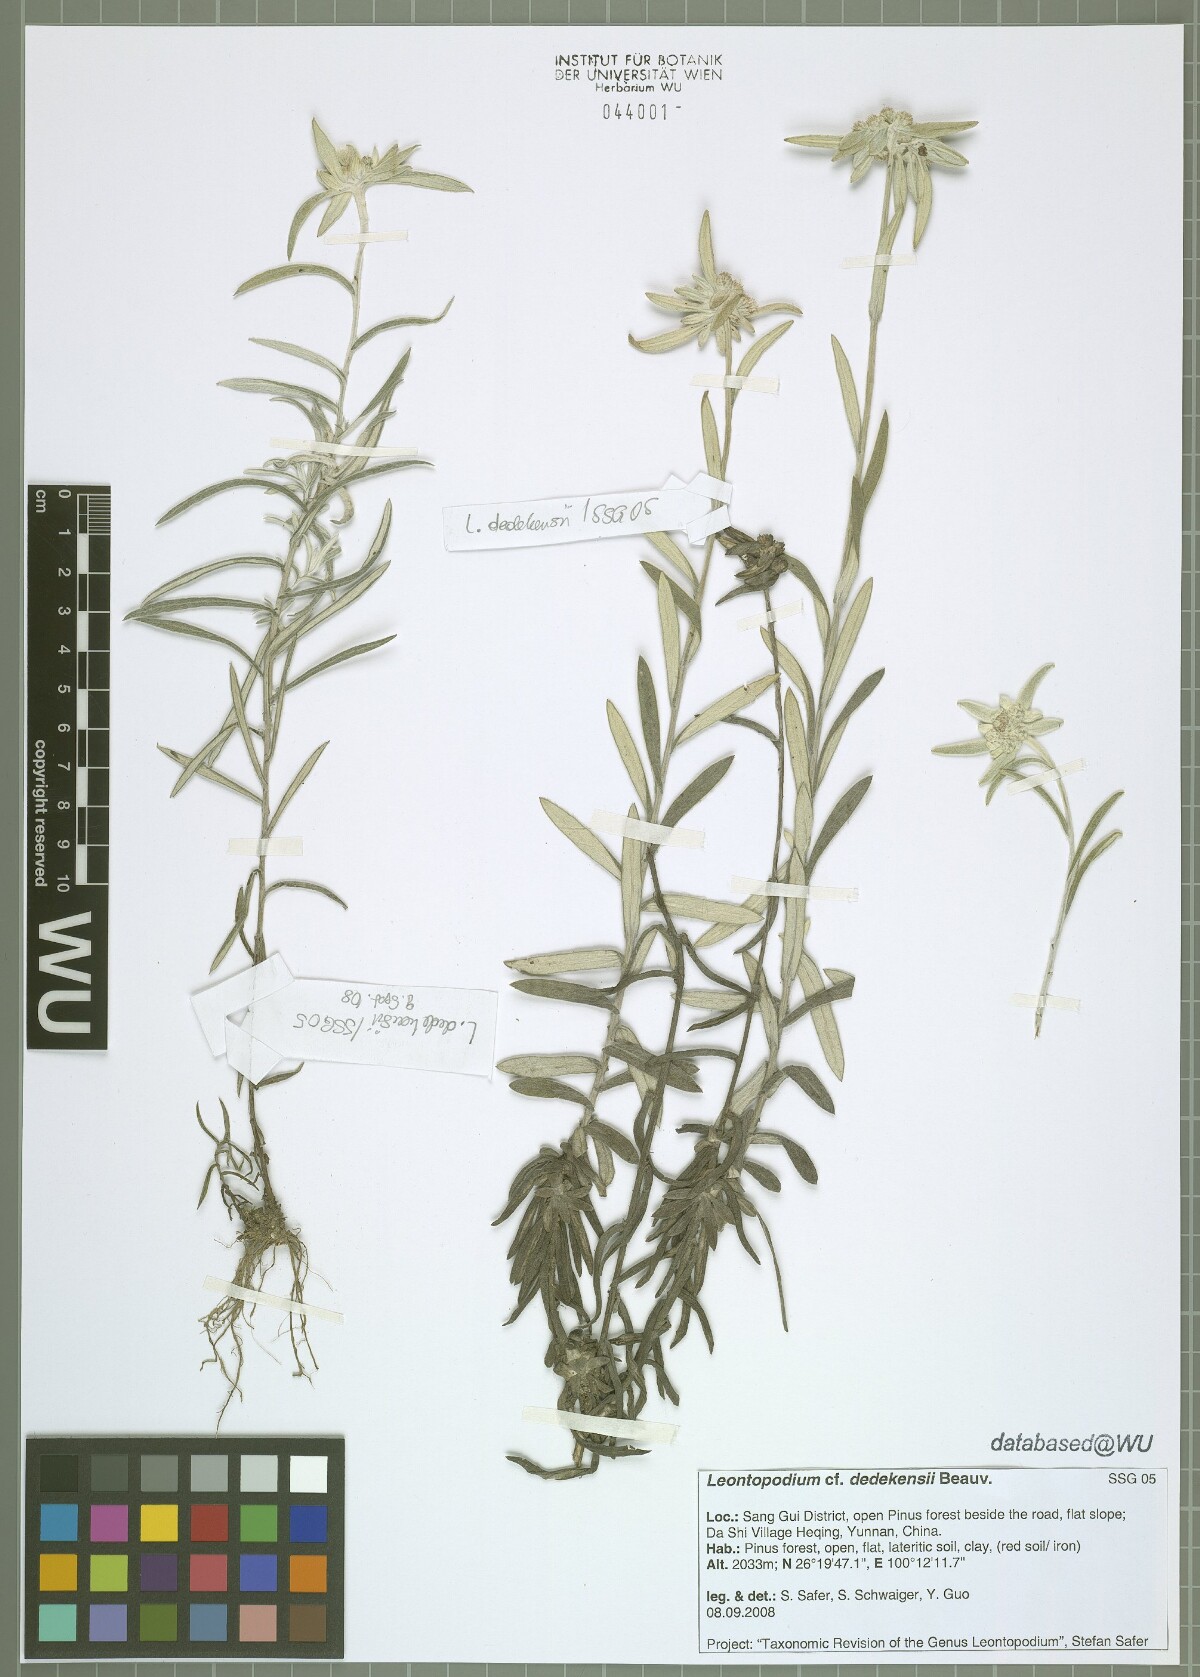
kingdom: Plantae
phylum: Tracheophyta
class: Magnoliopsida
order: Asterales
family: Asteraceae
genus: Leontopodium
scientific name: Leontopodium dedekensii
